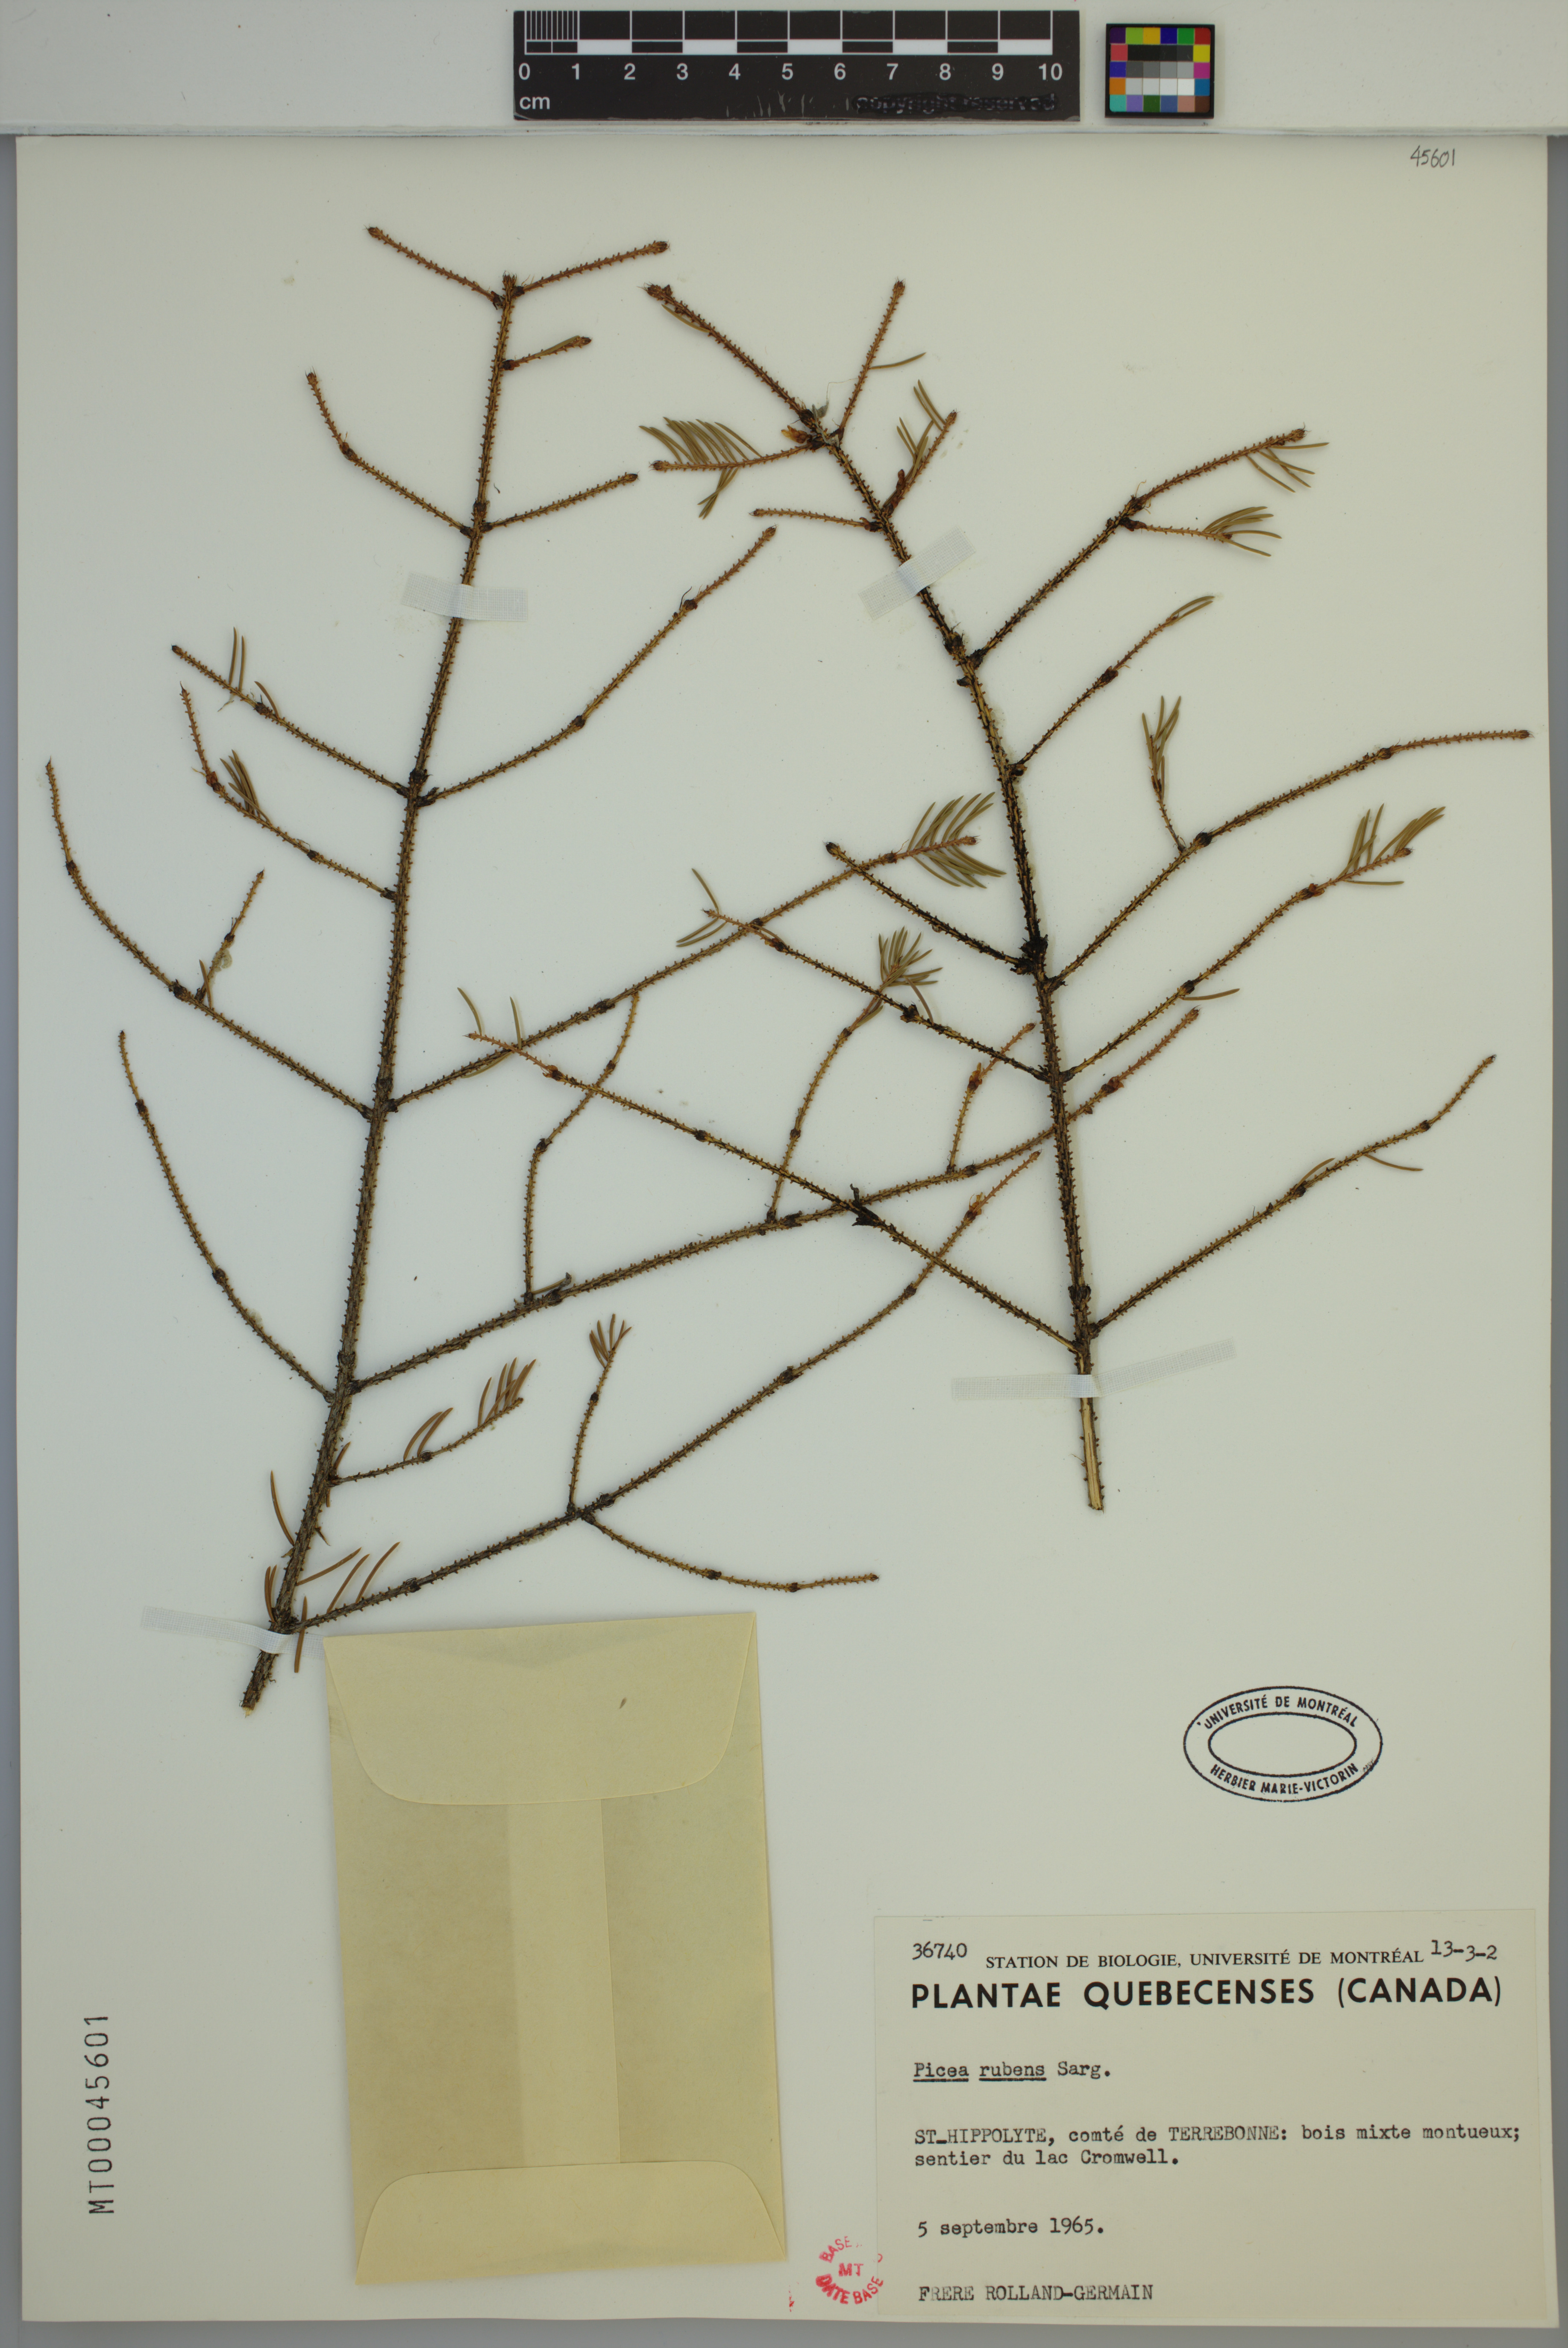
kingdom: Plantae
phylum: Tracheophyta
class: Pinopsida
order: Pinales
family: Pinaceae
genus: Picea
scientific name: Picea rubens
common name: Red spruce
